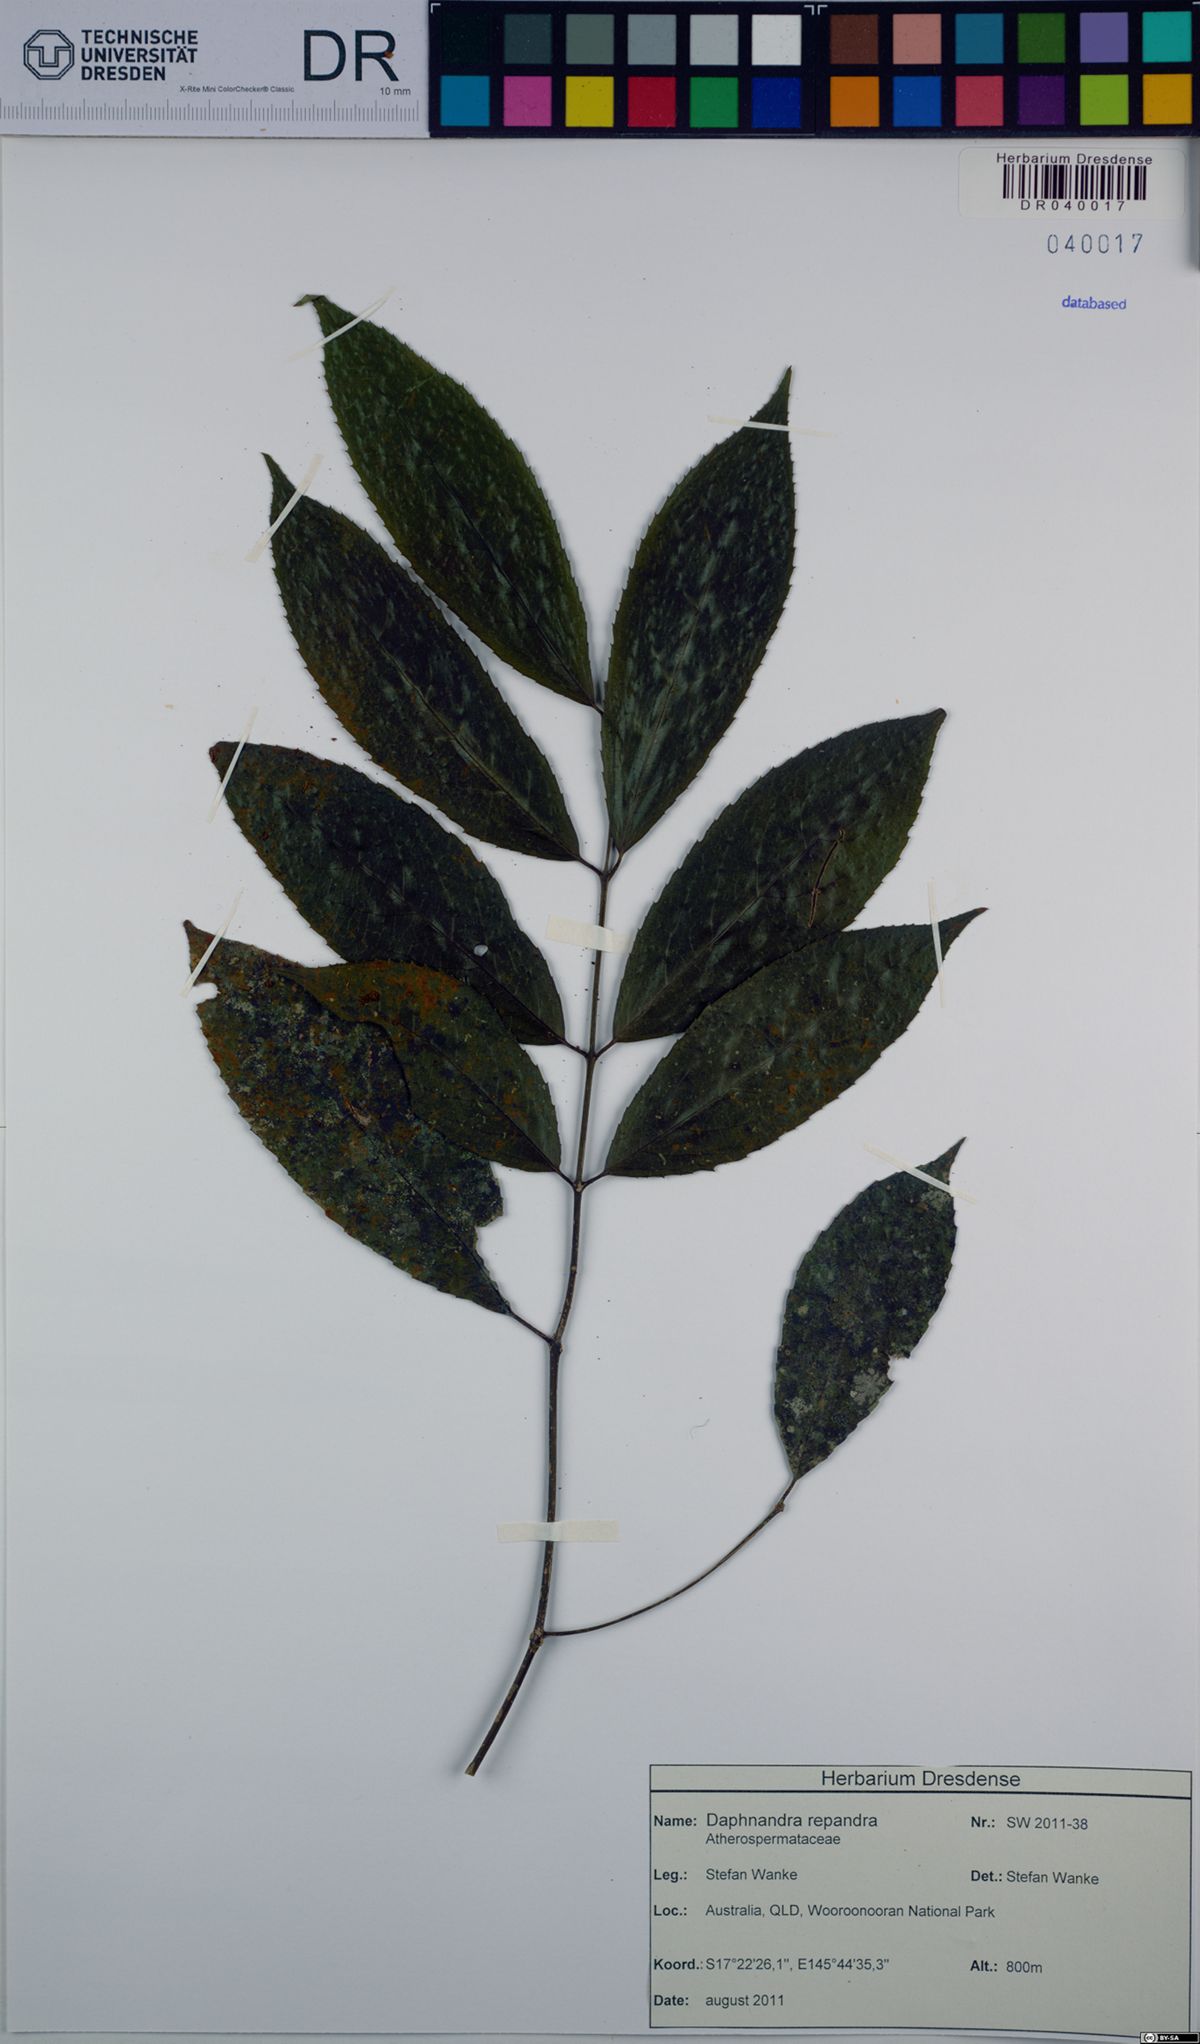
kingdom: Plantae
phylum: Tracheophyta
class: Magnoliopsida
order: Laurales
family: Atherospermataceae
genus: Daphnandra
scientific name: Daphnandra repandula
